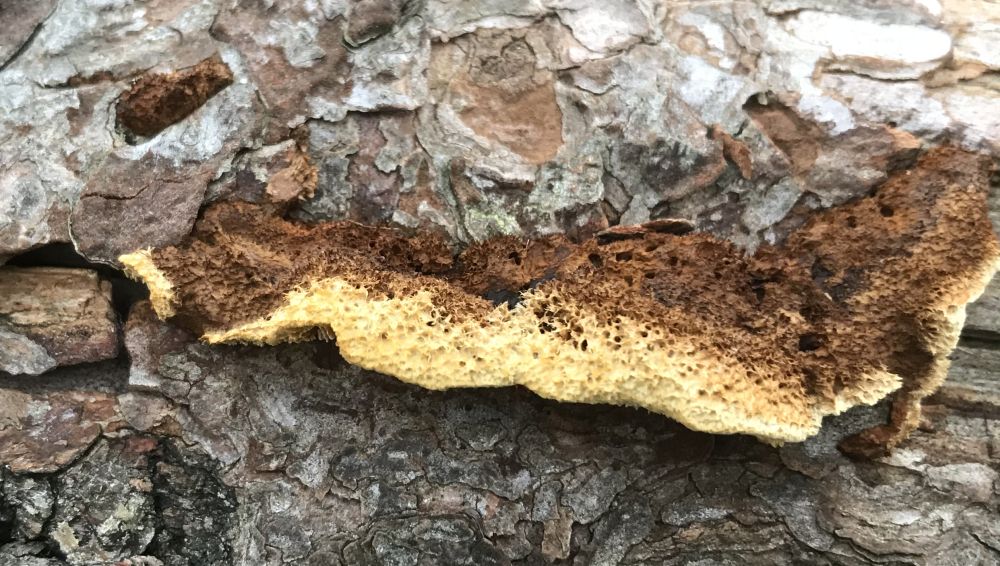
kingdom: Fungi
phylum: Basidiomycota
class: Agaricomycetes
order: Gloeophyllales
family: Gloeophyllaceae
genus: Gloeophyllum
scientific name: Gloeophyllum sepiarium
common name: fyrre-korkhat
